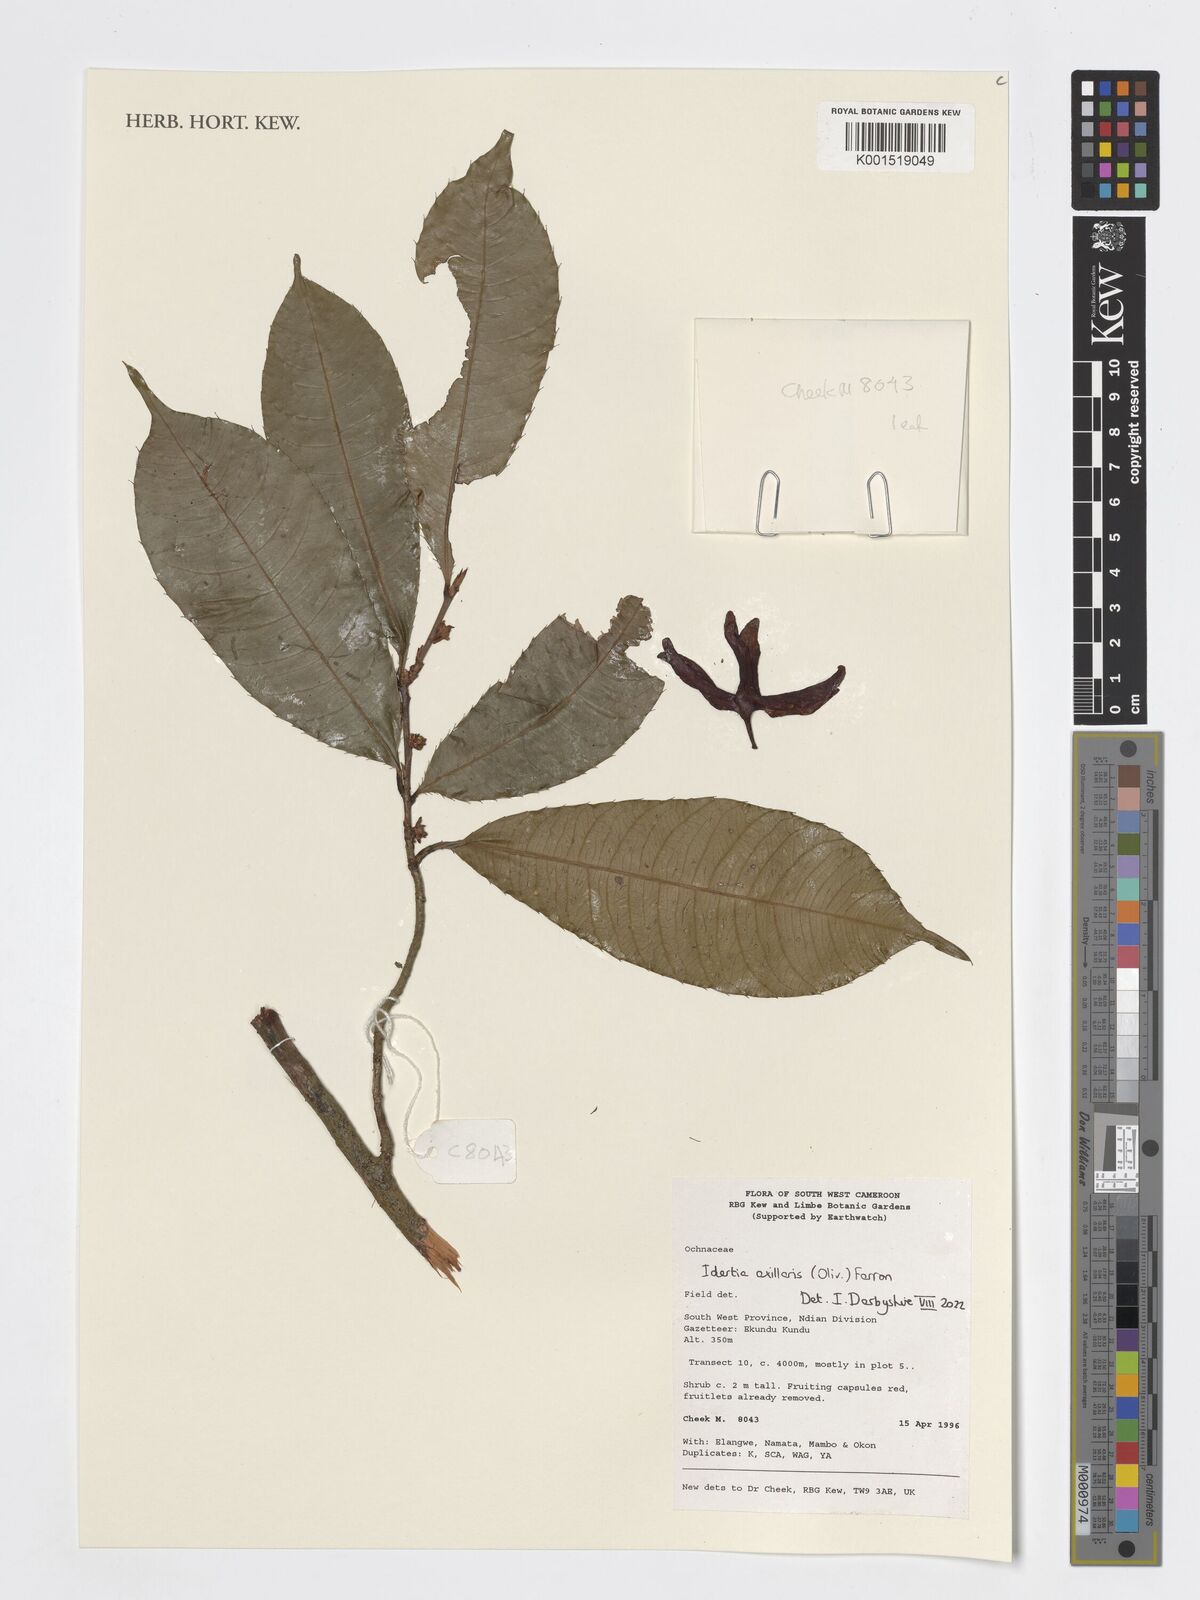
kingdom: Plantae
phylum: Tracheophyta
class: Magnoliopsida
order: Malpighiales
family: Ochnaceae
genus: Idertia
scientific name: Idertia axillaris
